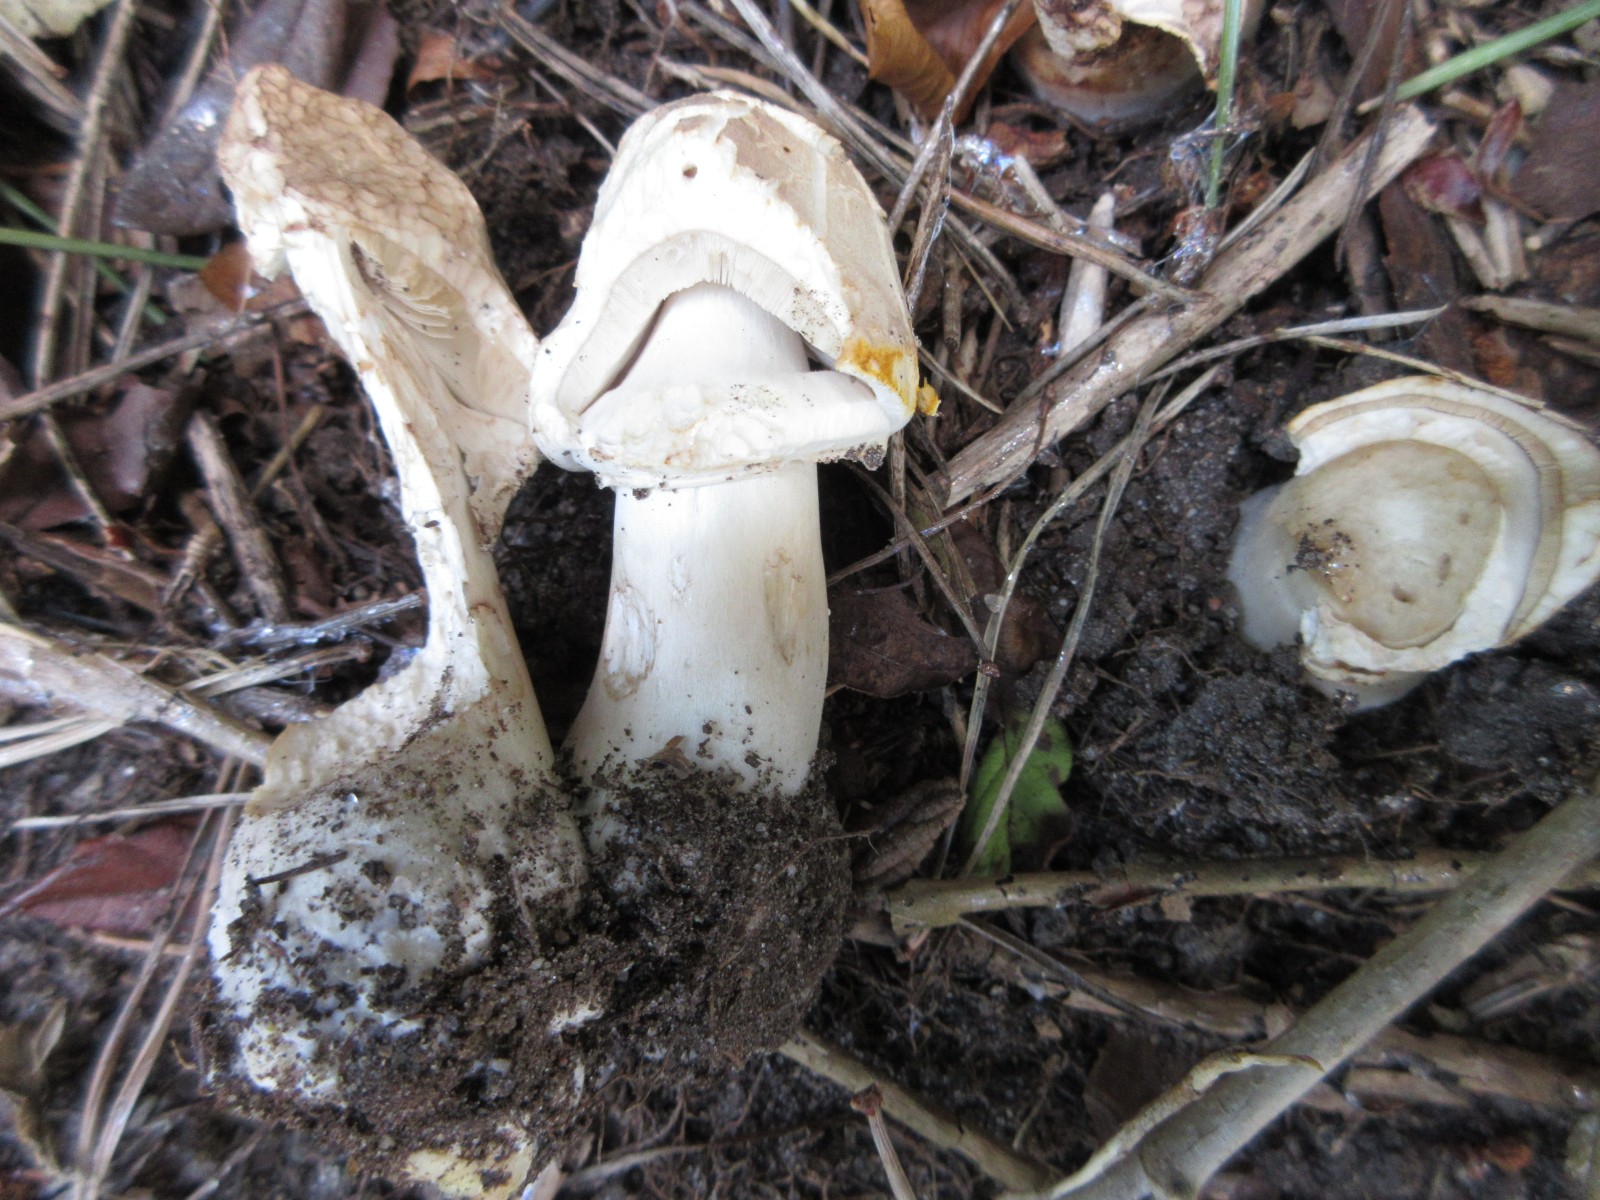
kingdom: Fungi
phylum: Basidiomycota
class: Agaricomycetes
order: Agaricales
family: Agaricaceae
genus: Agaricus
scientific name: Agaricus xanthodermus
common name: karbol-champignon
